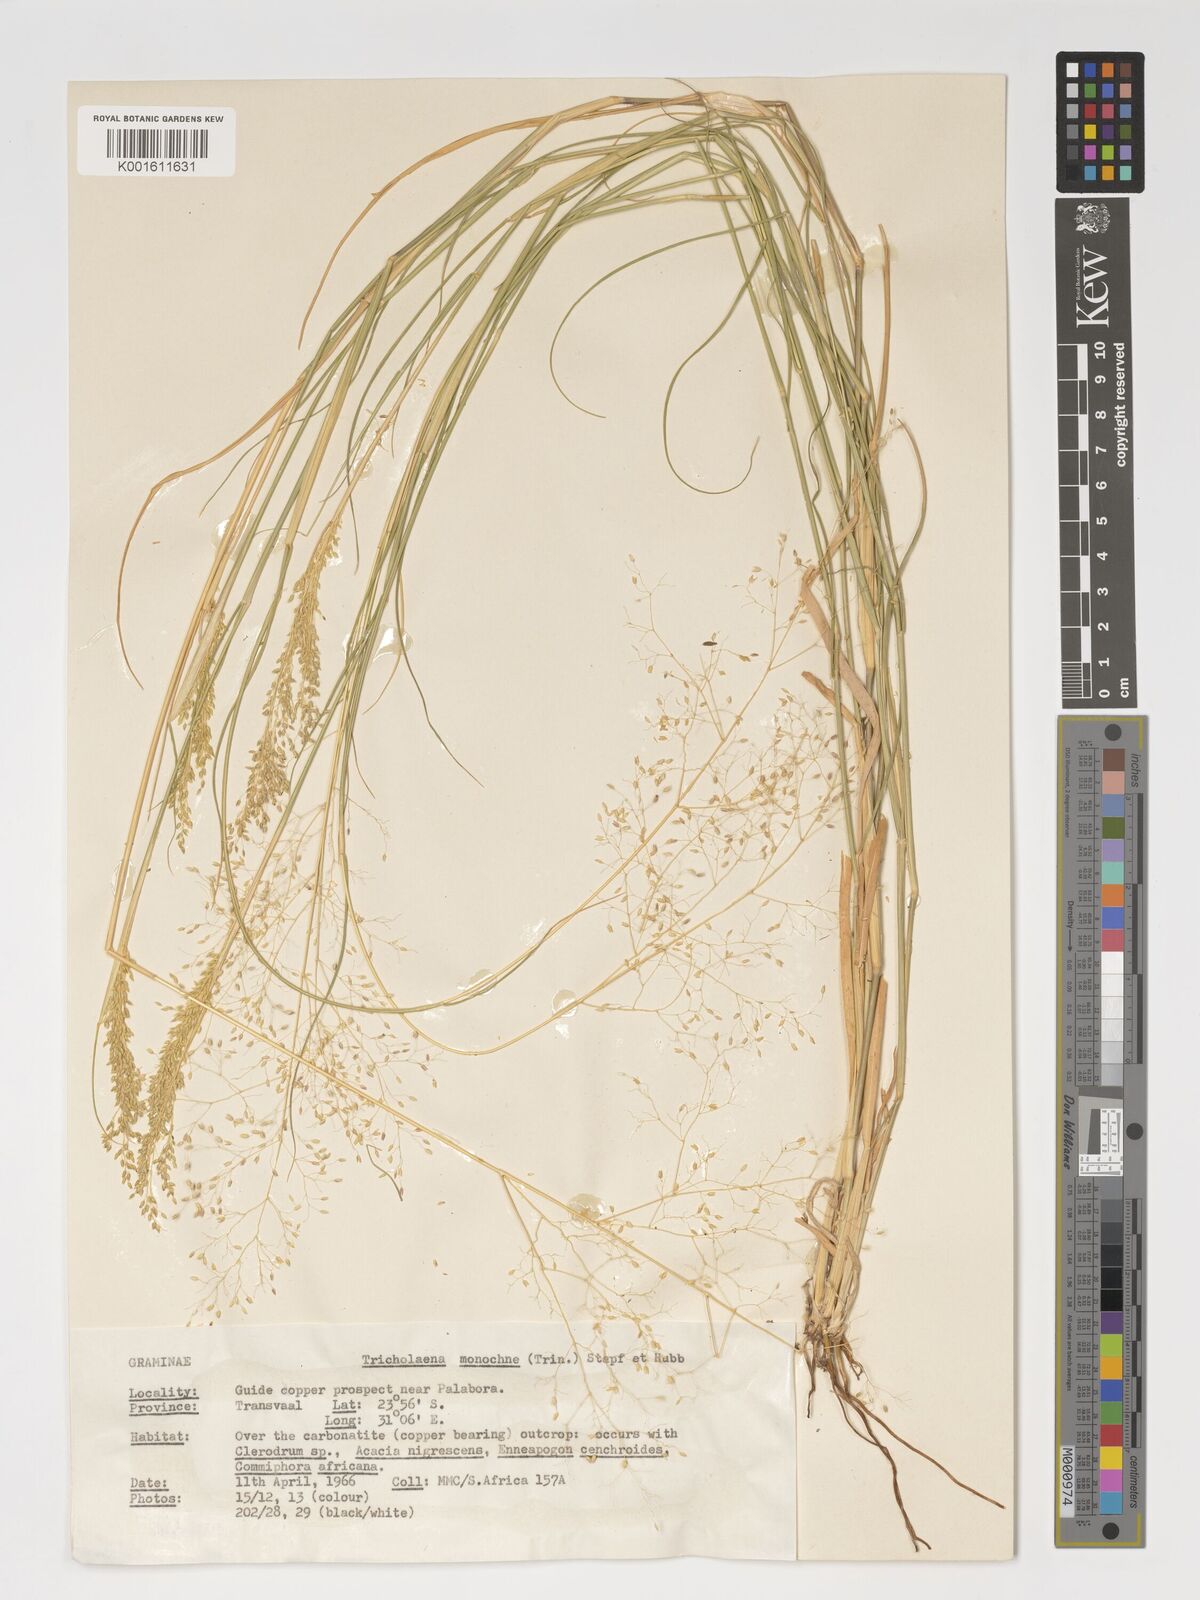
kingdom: Plantae
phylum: Tracheophyta
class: Liliopsida
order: Poales
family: Poaceae
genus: Tricholaena
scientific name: Tricholaena monachne
